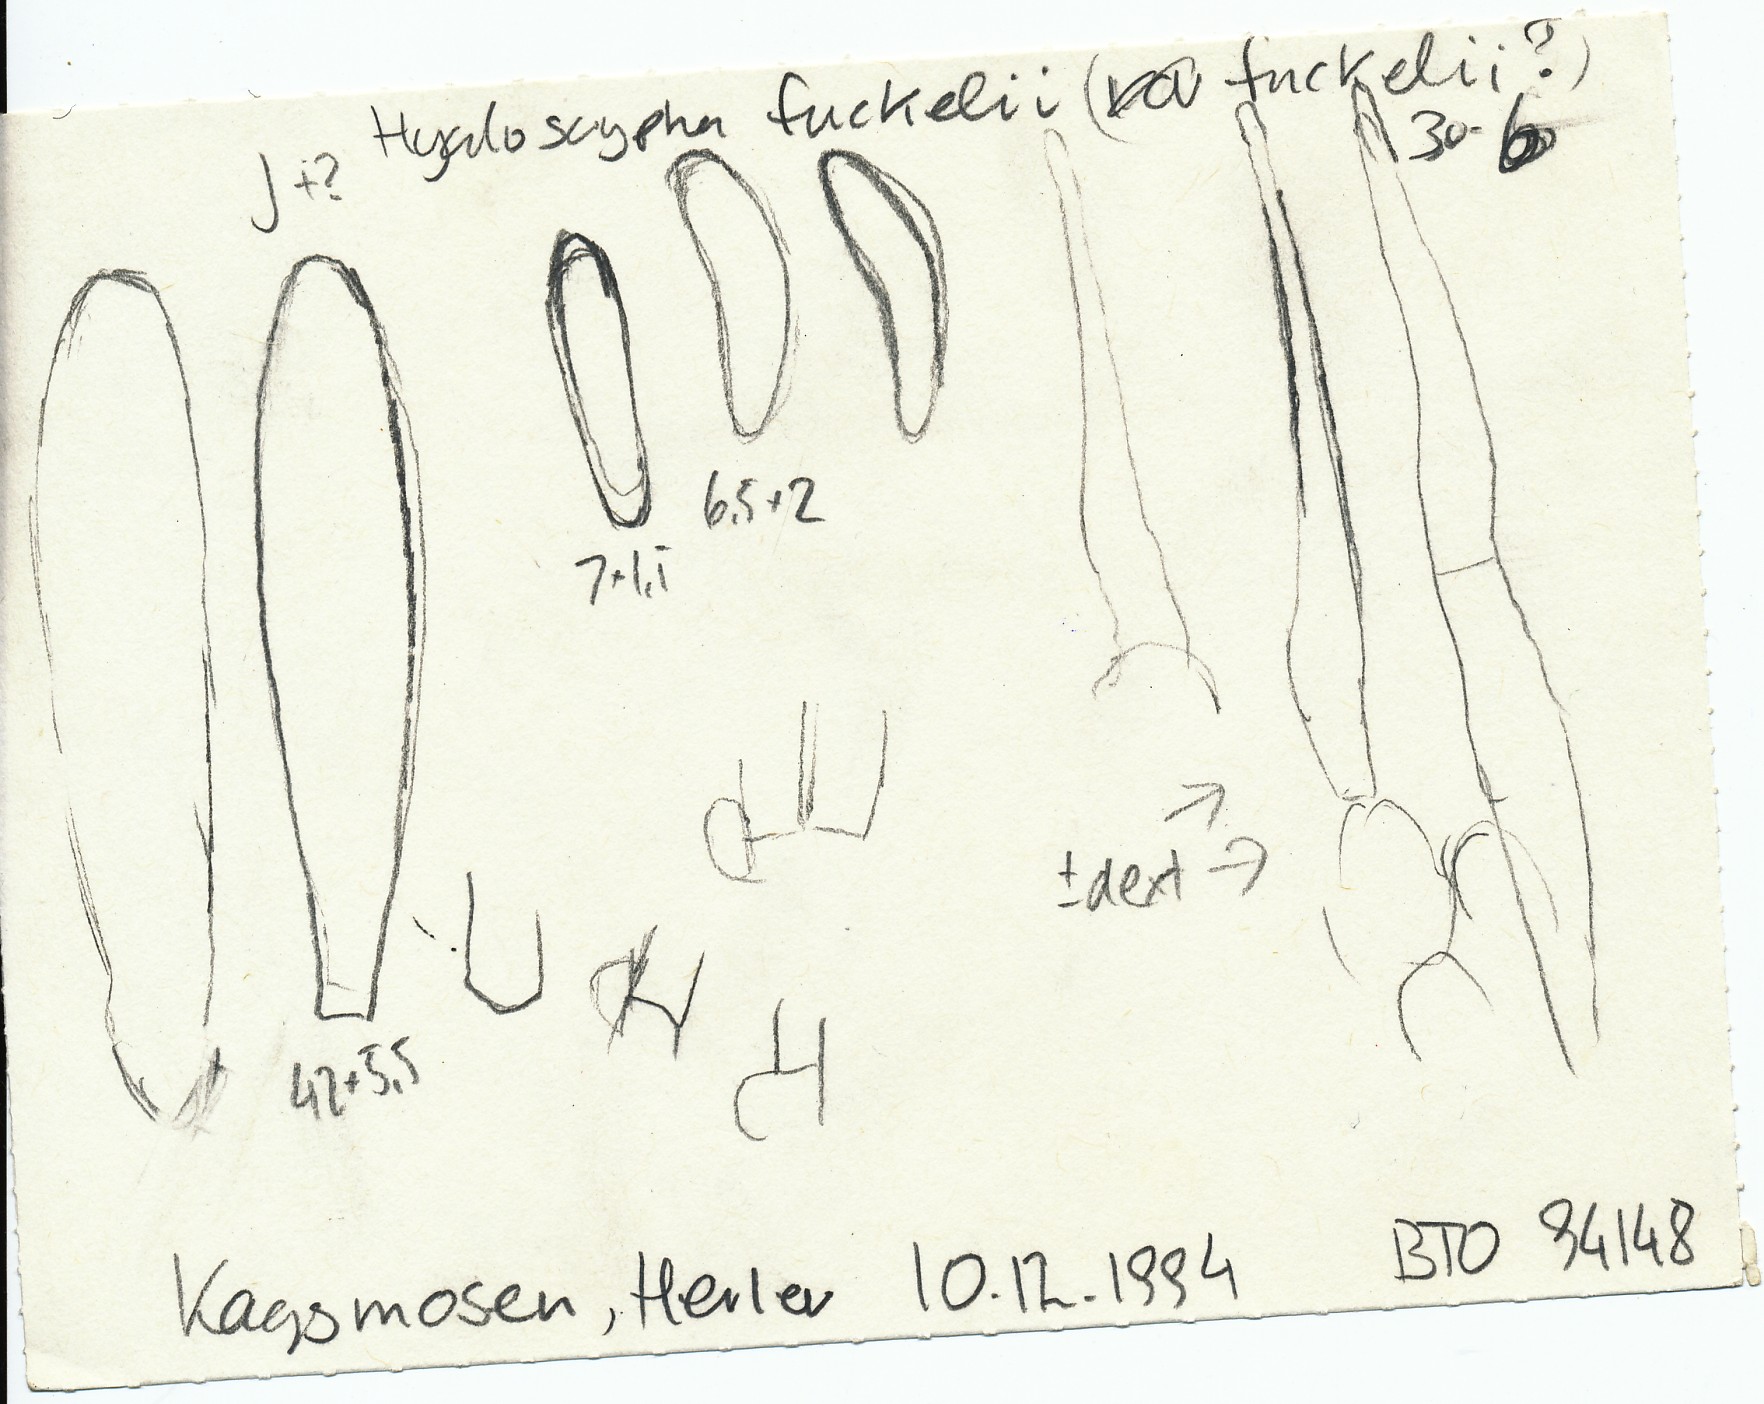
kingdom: Fungi
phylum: Ascomycota
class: Leotiomycetes
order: Helotiales
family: Hyaloscyphaceae
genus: Hyaloscypha
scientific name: Hyaloscypha fuckelii
